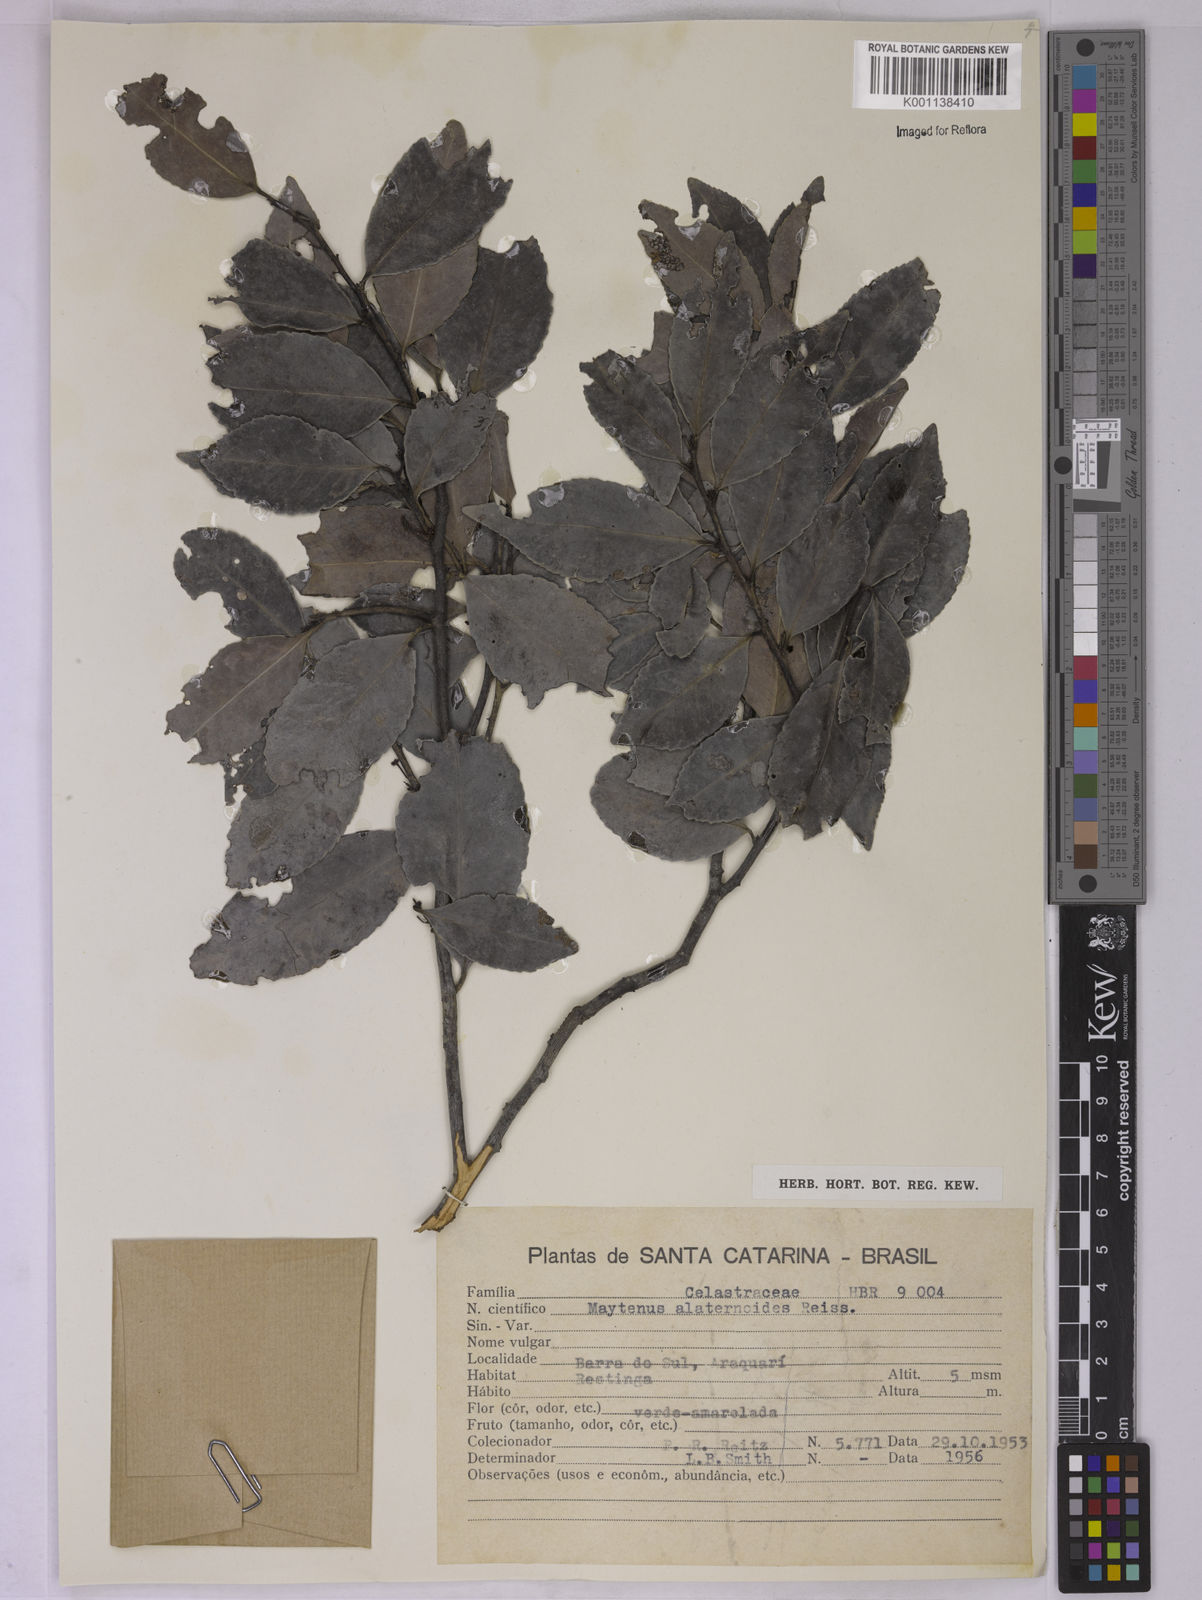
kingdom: Plantae
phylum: Tracheophyta
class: Magnoliopsida
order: Celastrales
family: Celastraceae
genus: Maytenus
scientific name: Maytenus alaternoides
